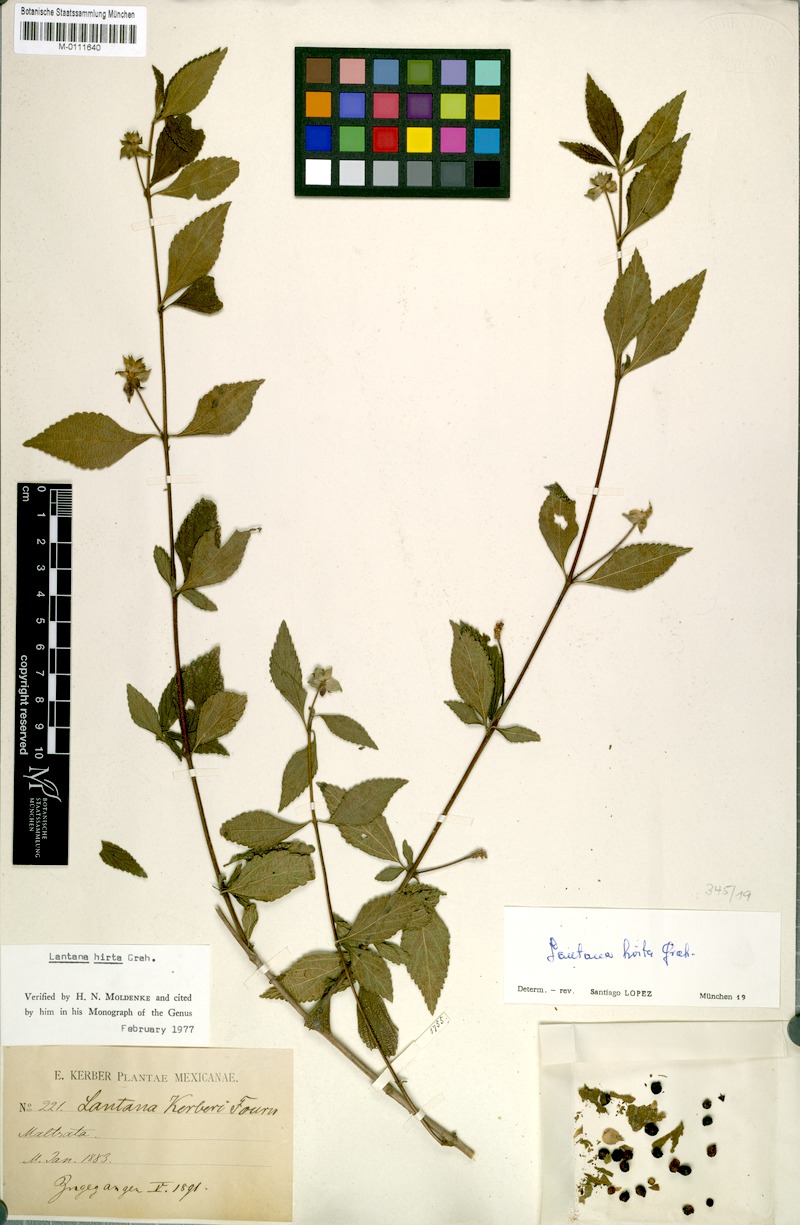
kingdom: Plantae
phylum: Tracheophyta
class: Magnoliopsida
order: Lamiales
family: Verbenaceae
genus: Lantana
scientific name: Lantana kerberi
